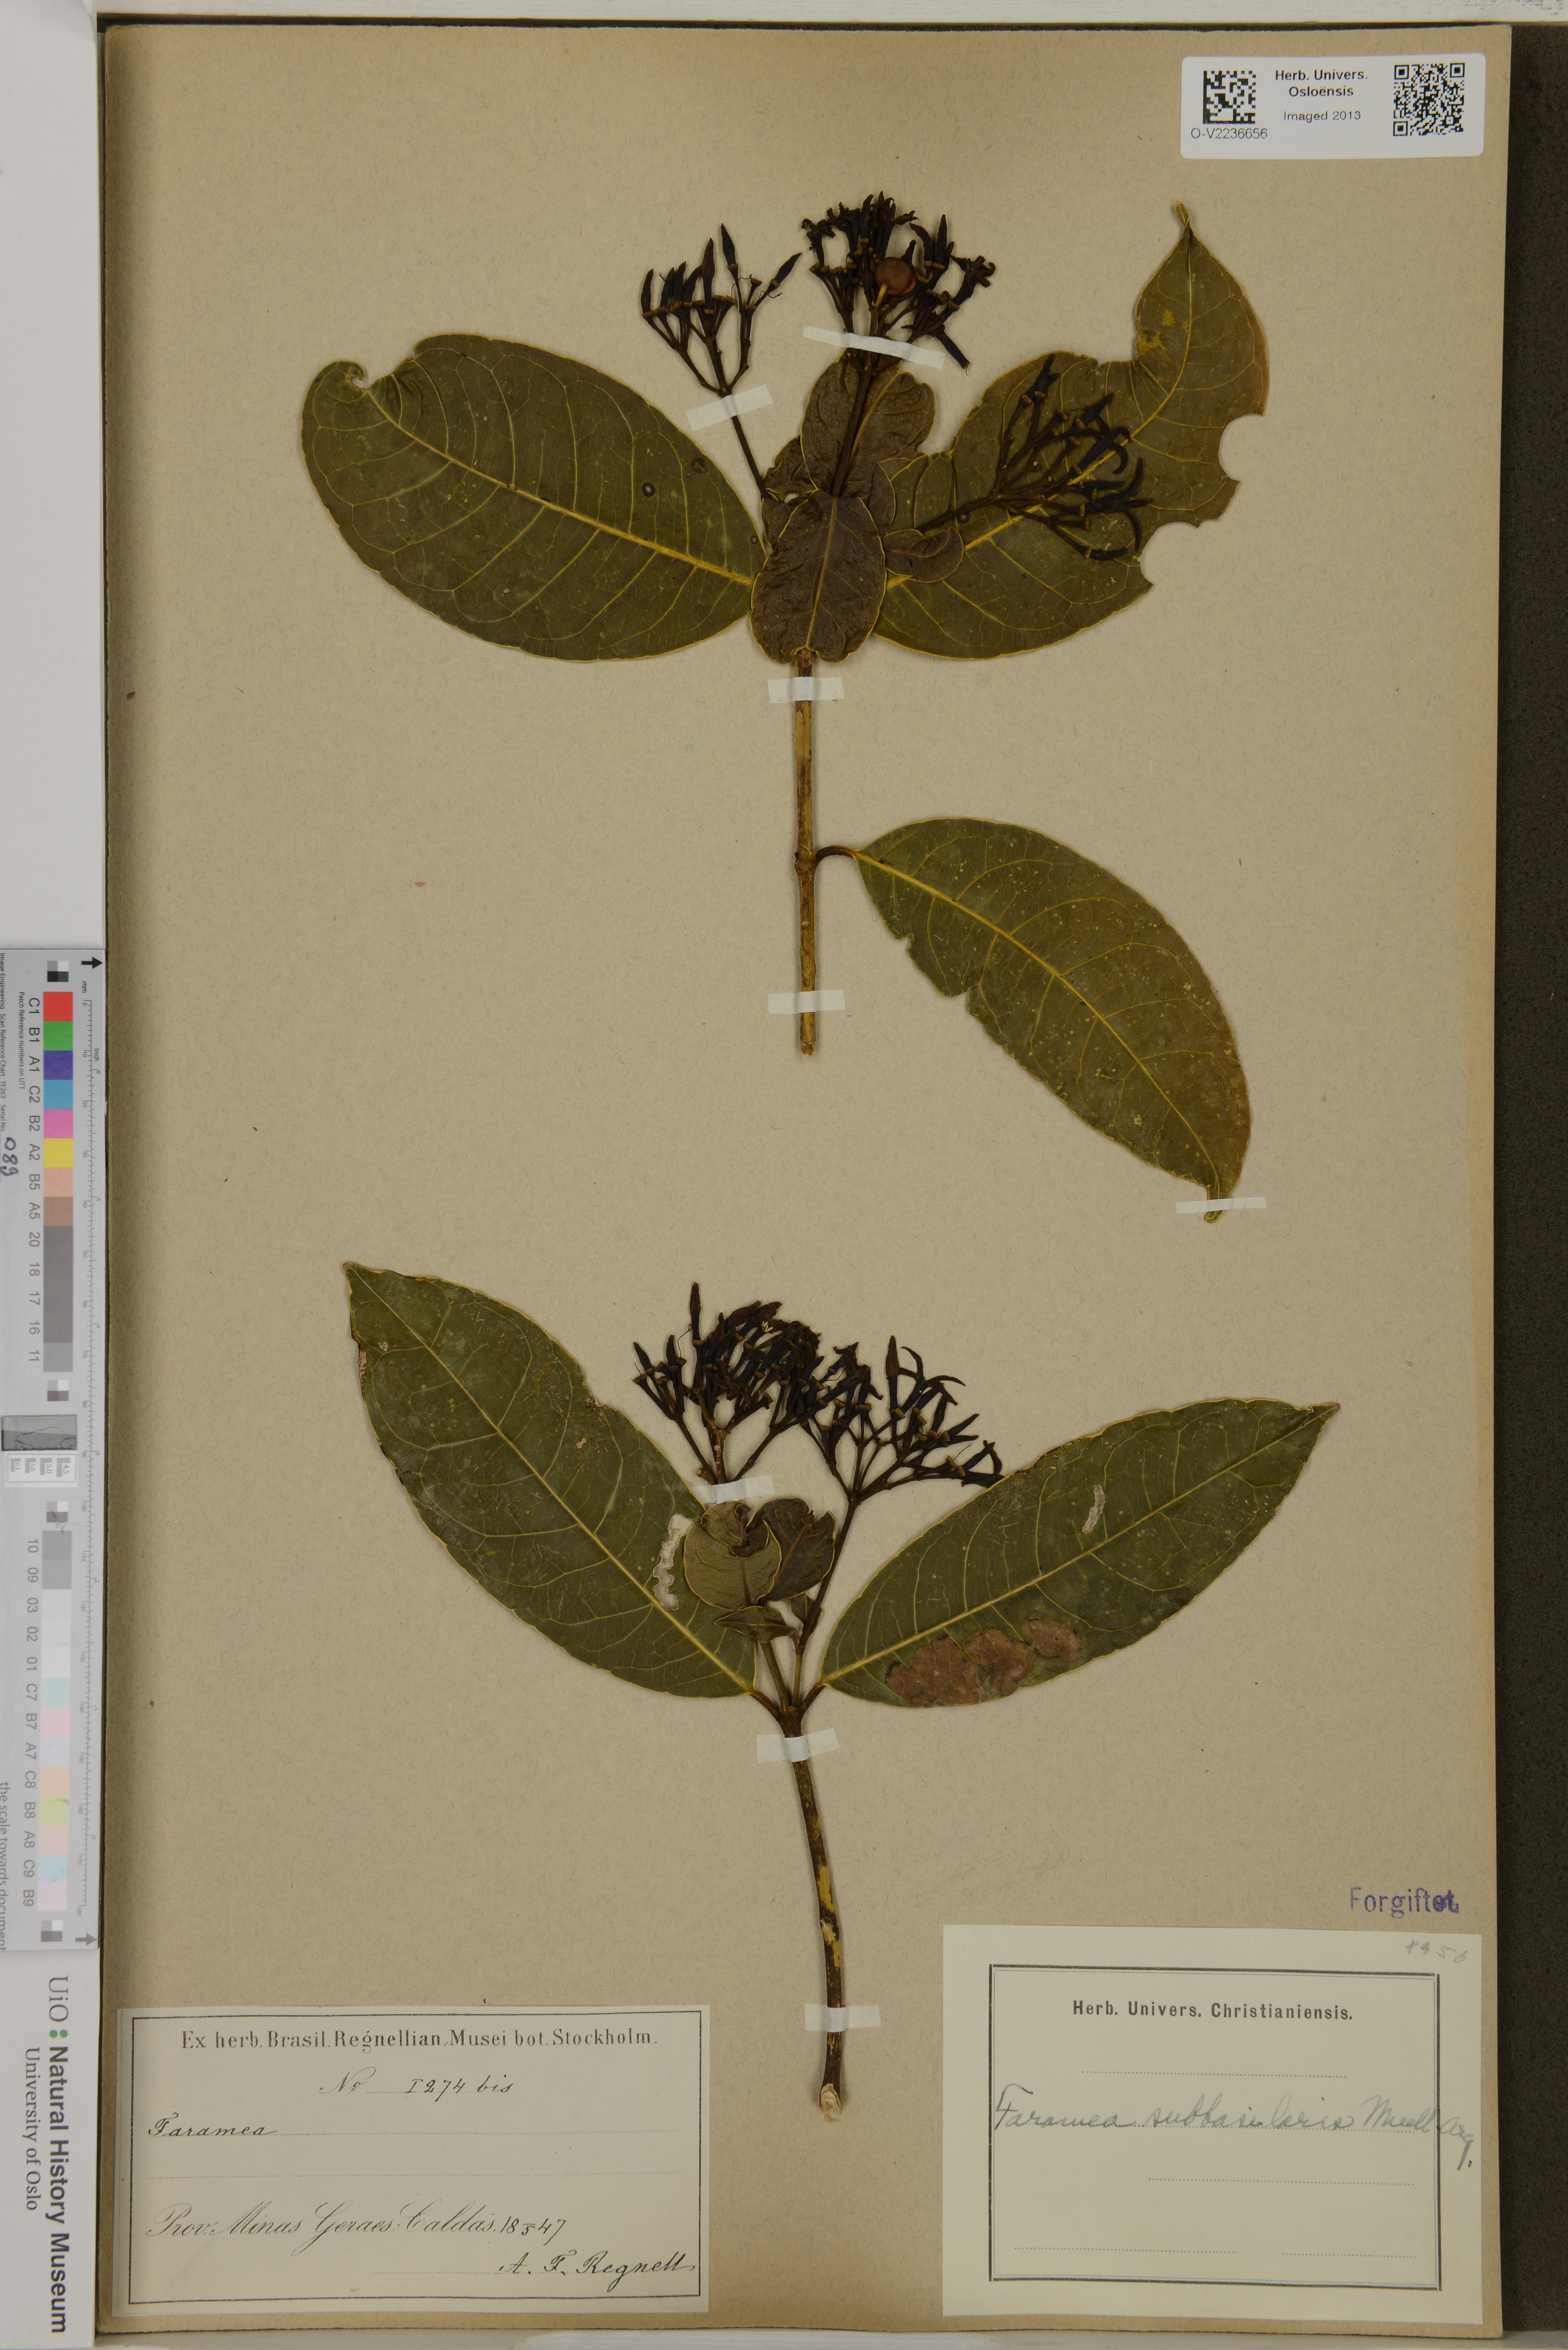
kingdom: Plantae
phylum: Tracheophyta
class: Magnoliopsida
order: Gentianales
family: Rubiaceae
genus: Faramea
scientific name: Faramea subbasilaris
